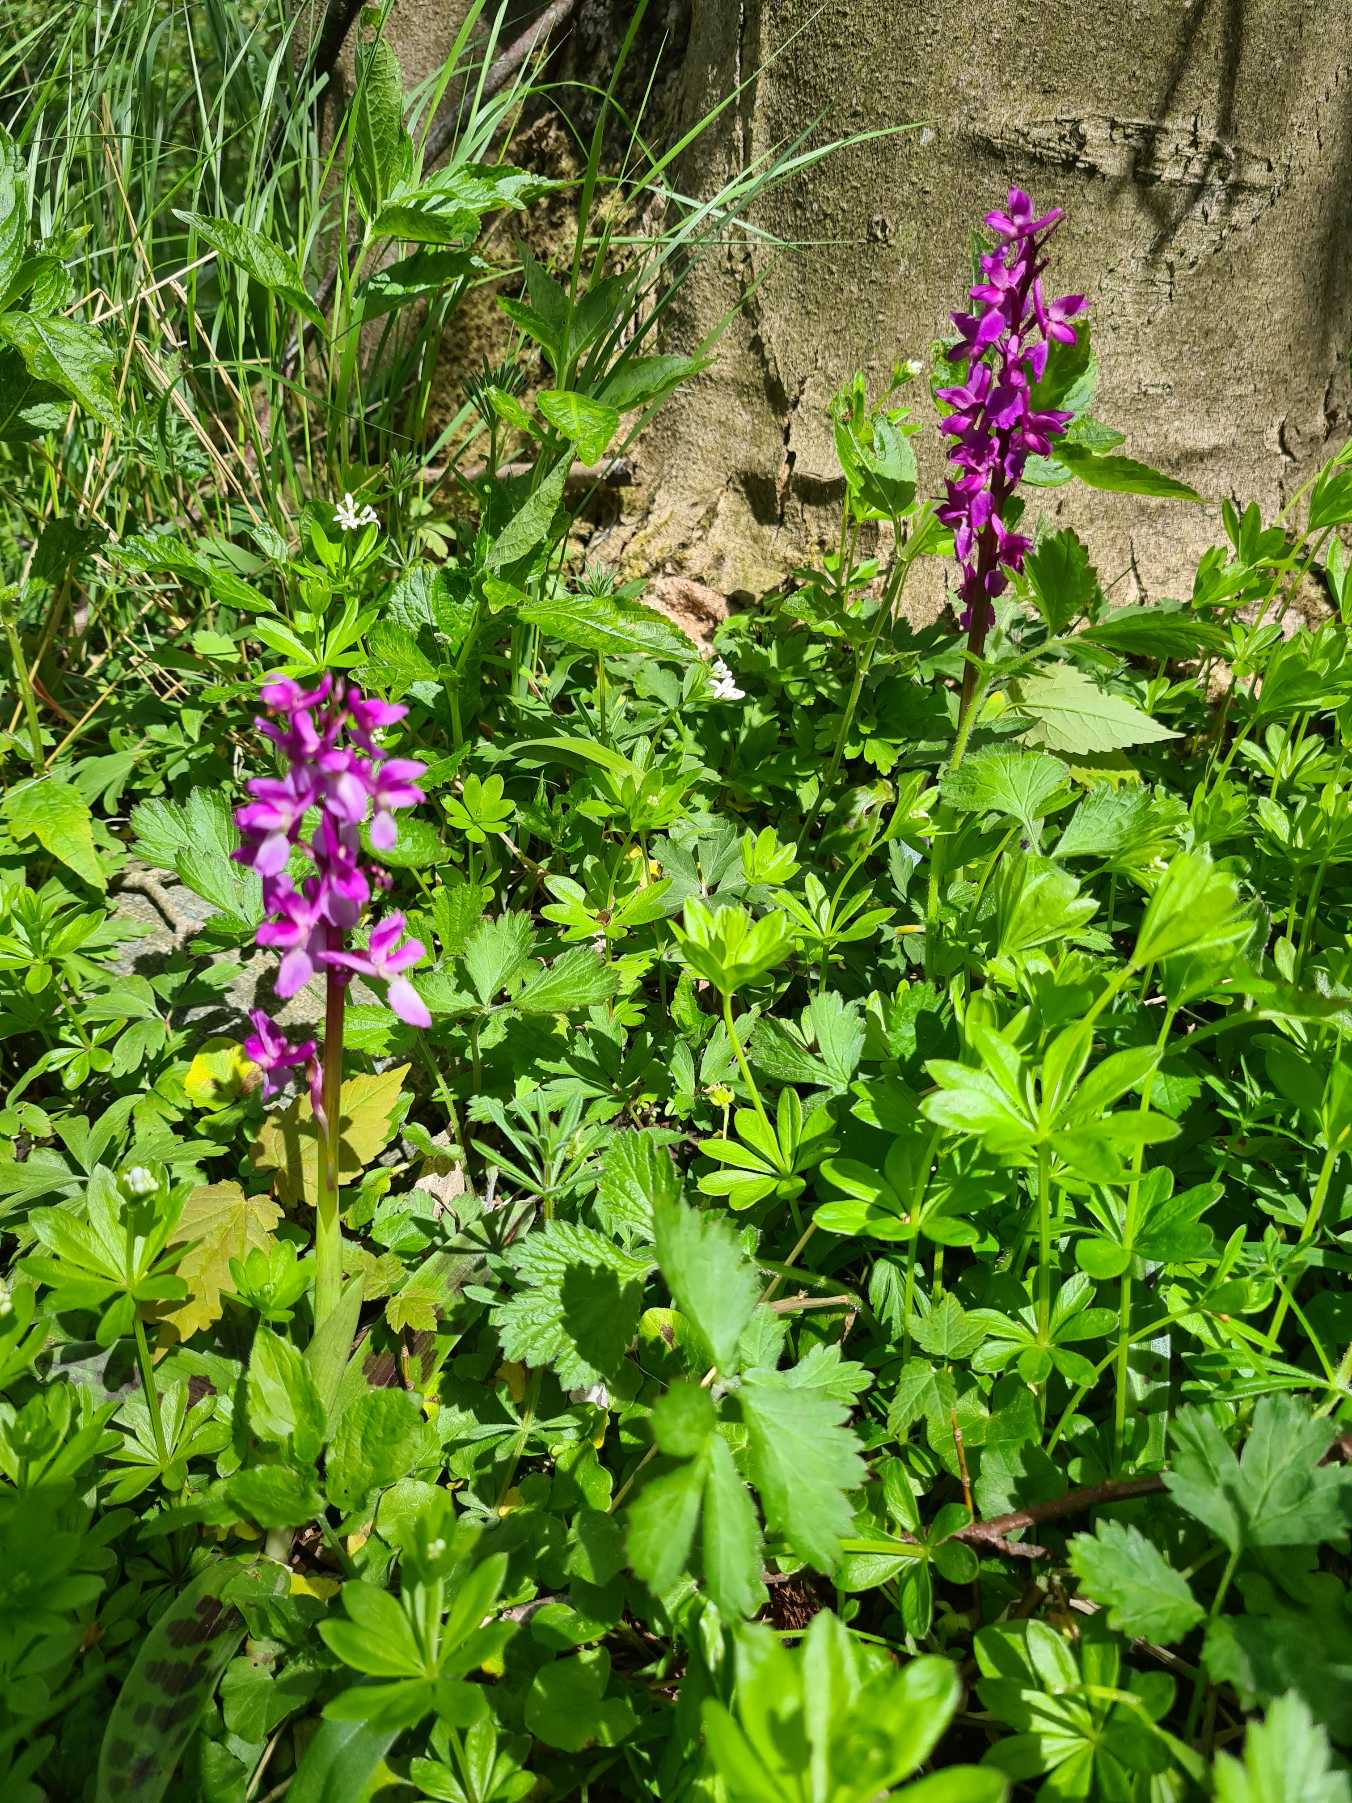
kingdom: Plantae
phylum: Tracheophyta
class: Liliopsida
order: Asparagales
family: Orchidaceae
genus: Orchis
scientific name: Orchis mascula
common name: Tyndakset gøgeurt
